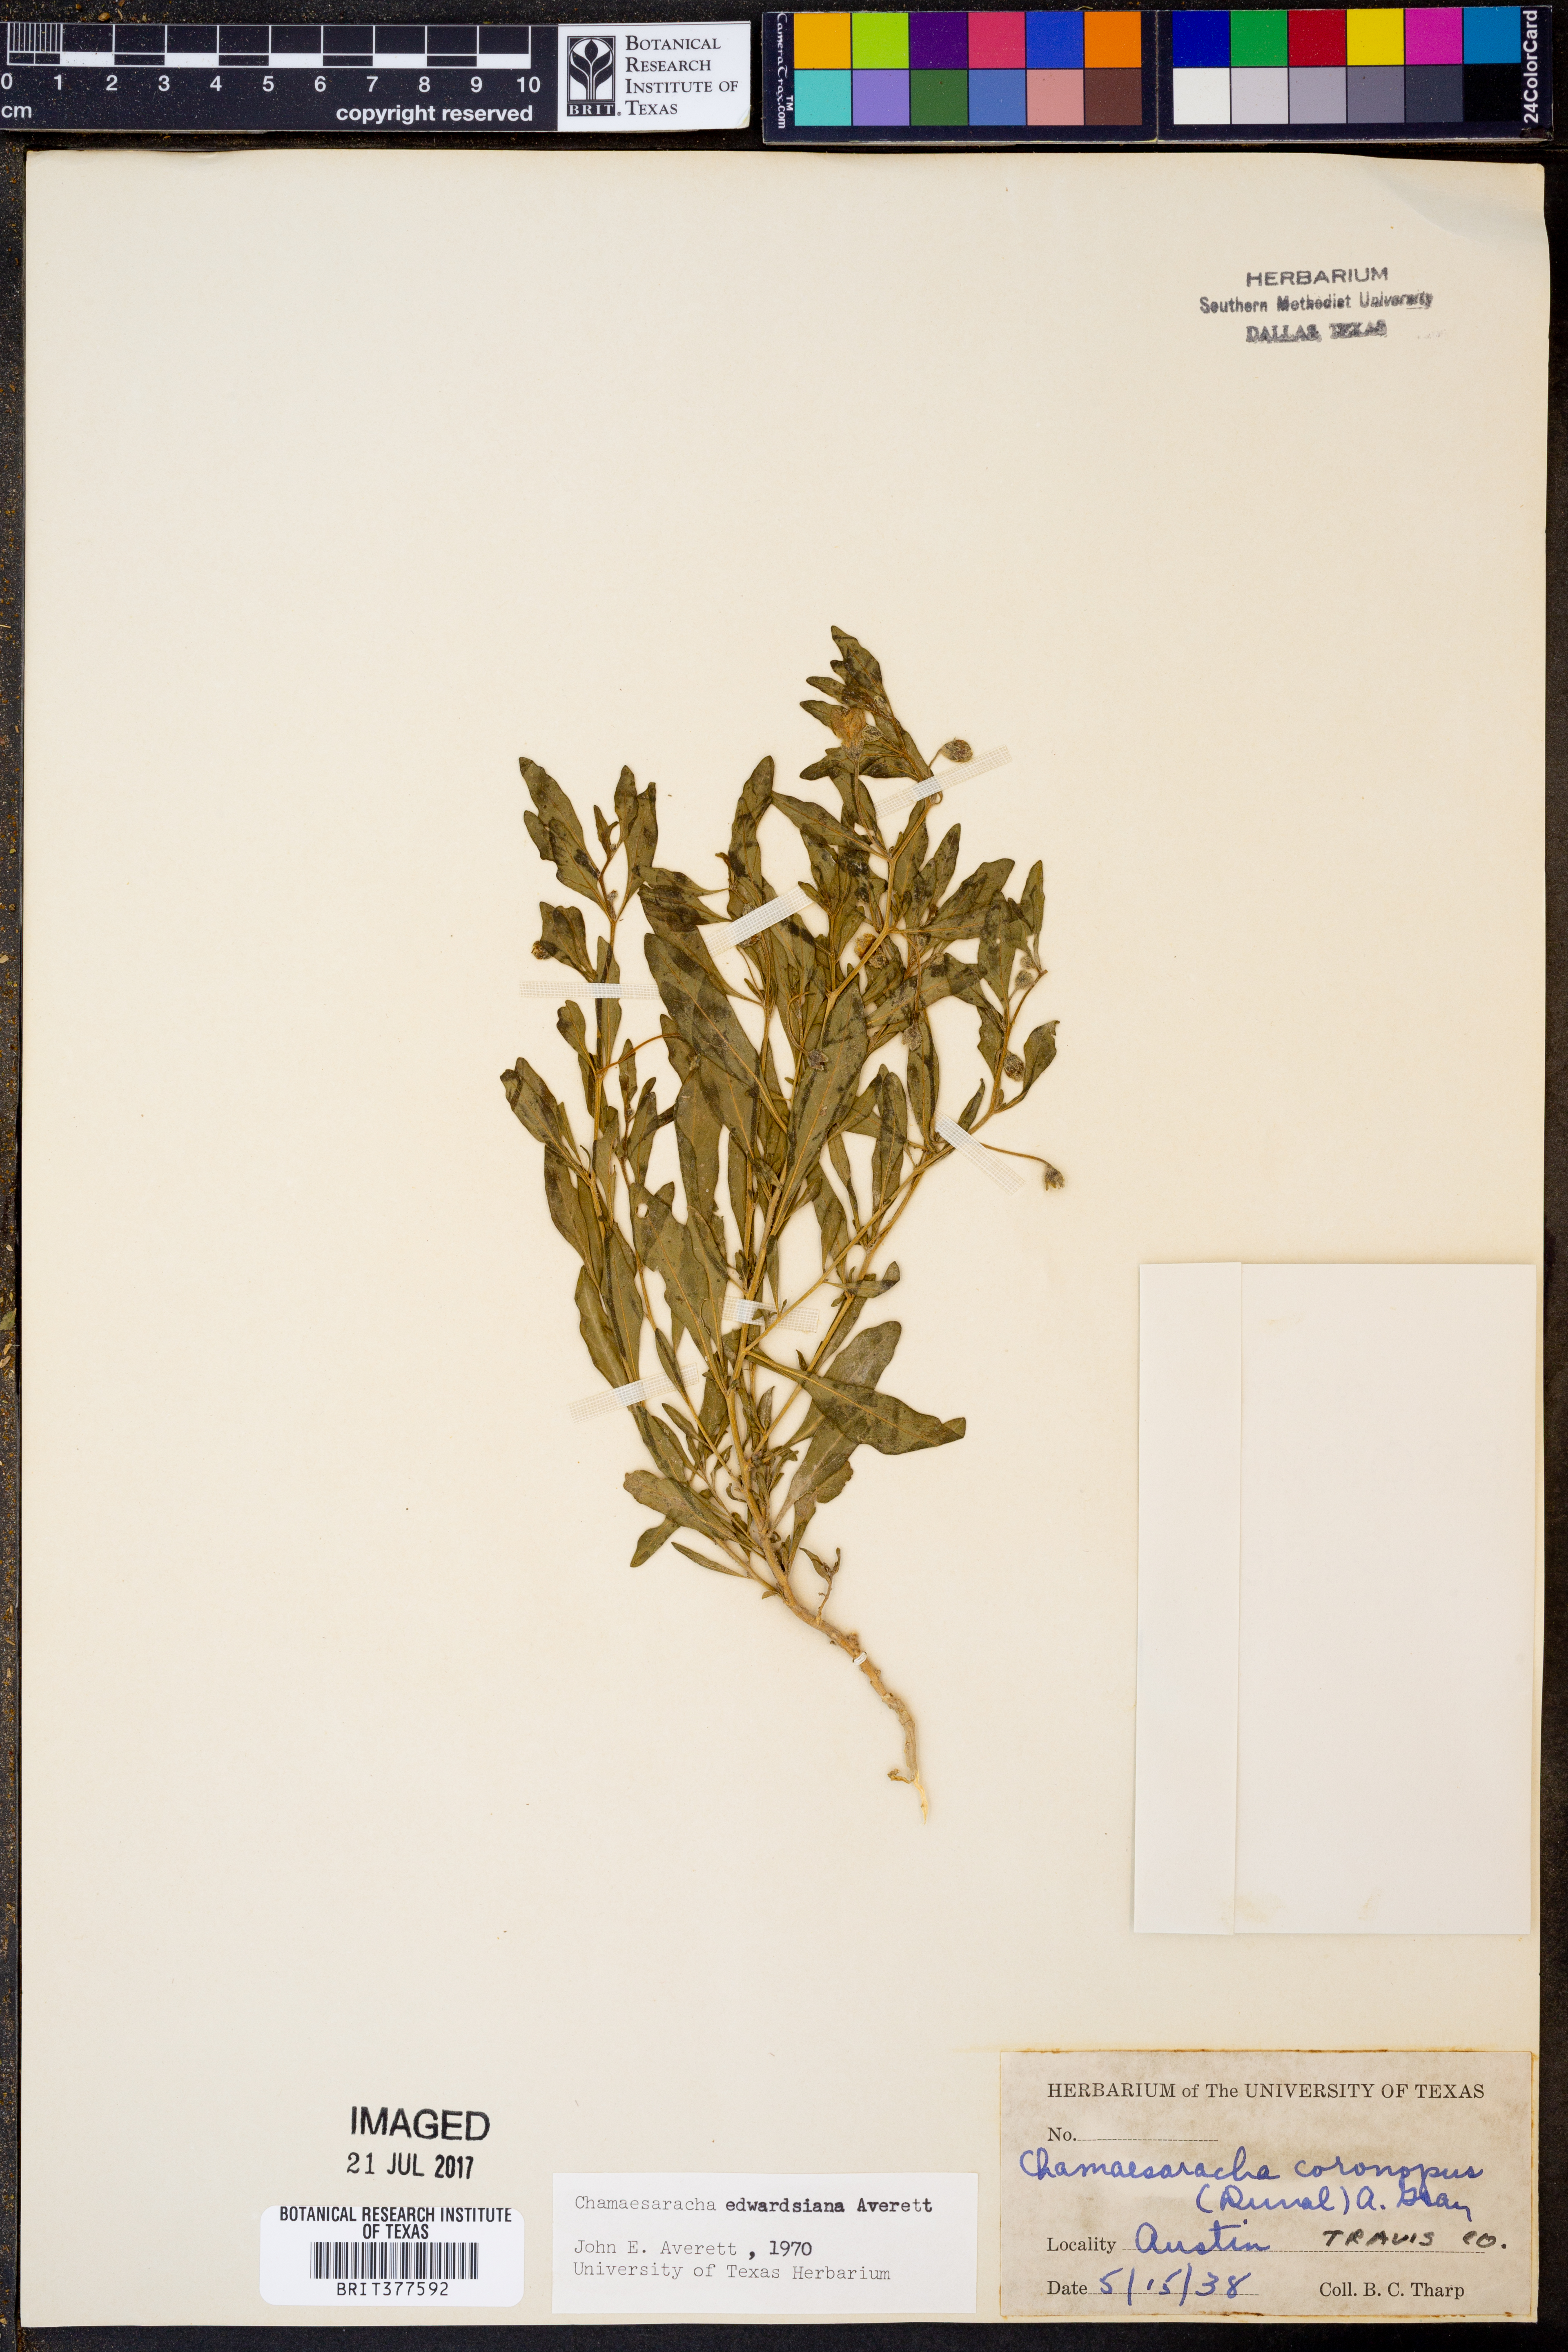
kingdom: Plantae
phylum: Tracheophyta
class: Magnoliopsida
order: Solanales
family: Solanaceae
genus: Chamaesaracha
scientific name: Chamaesaracha edwardsiana
